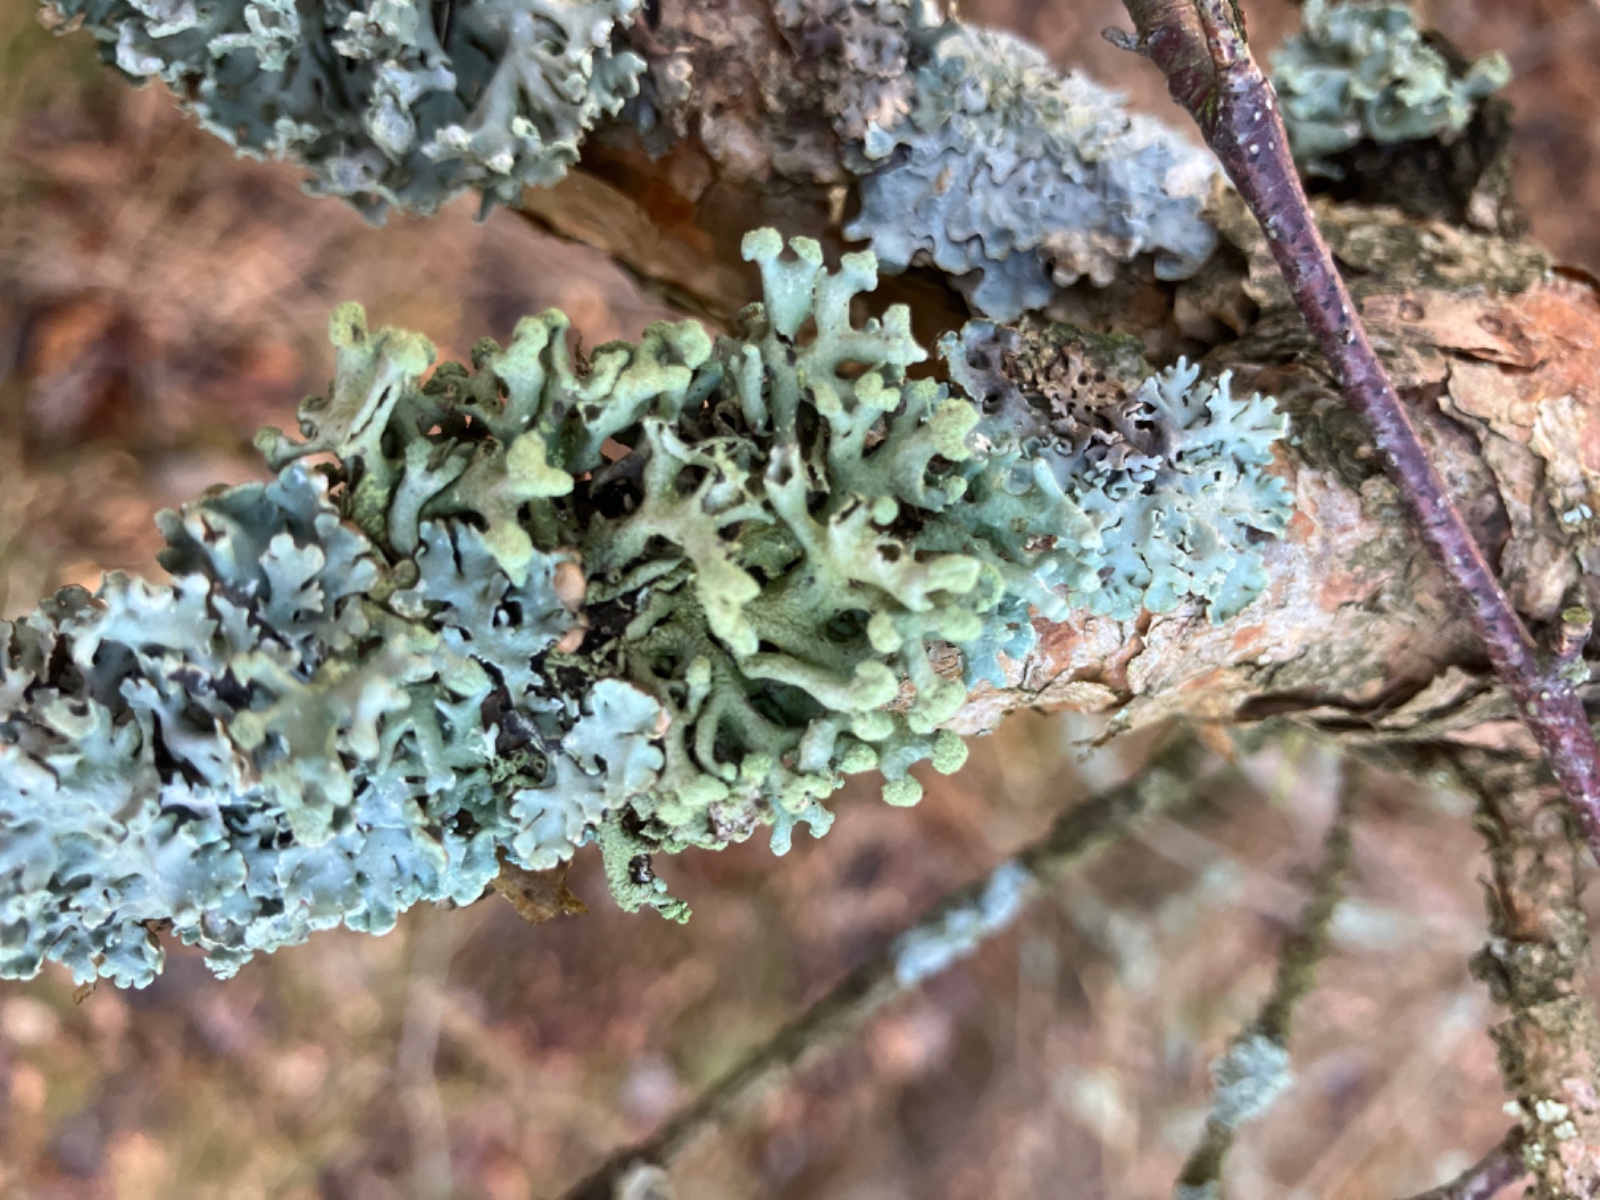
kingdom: Fungi
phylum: Ascomycota
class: Lecanoromycetes
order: Lecanorales
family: Parmeliaceae
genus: Hypogymnia
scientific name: Hypogymnia tubulosa
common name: finger-kvistlav
